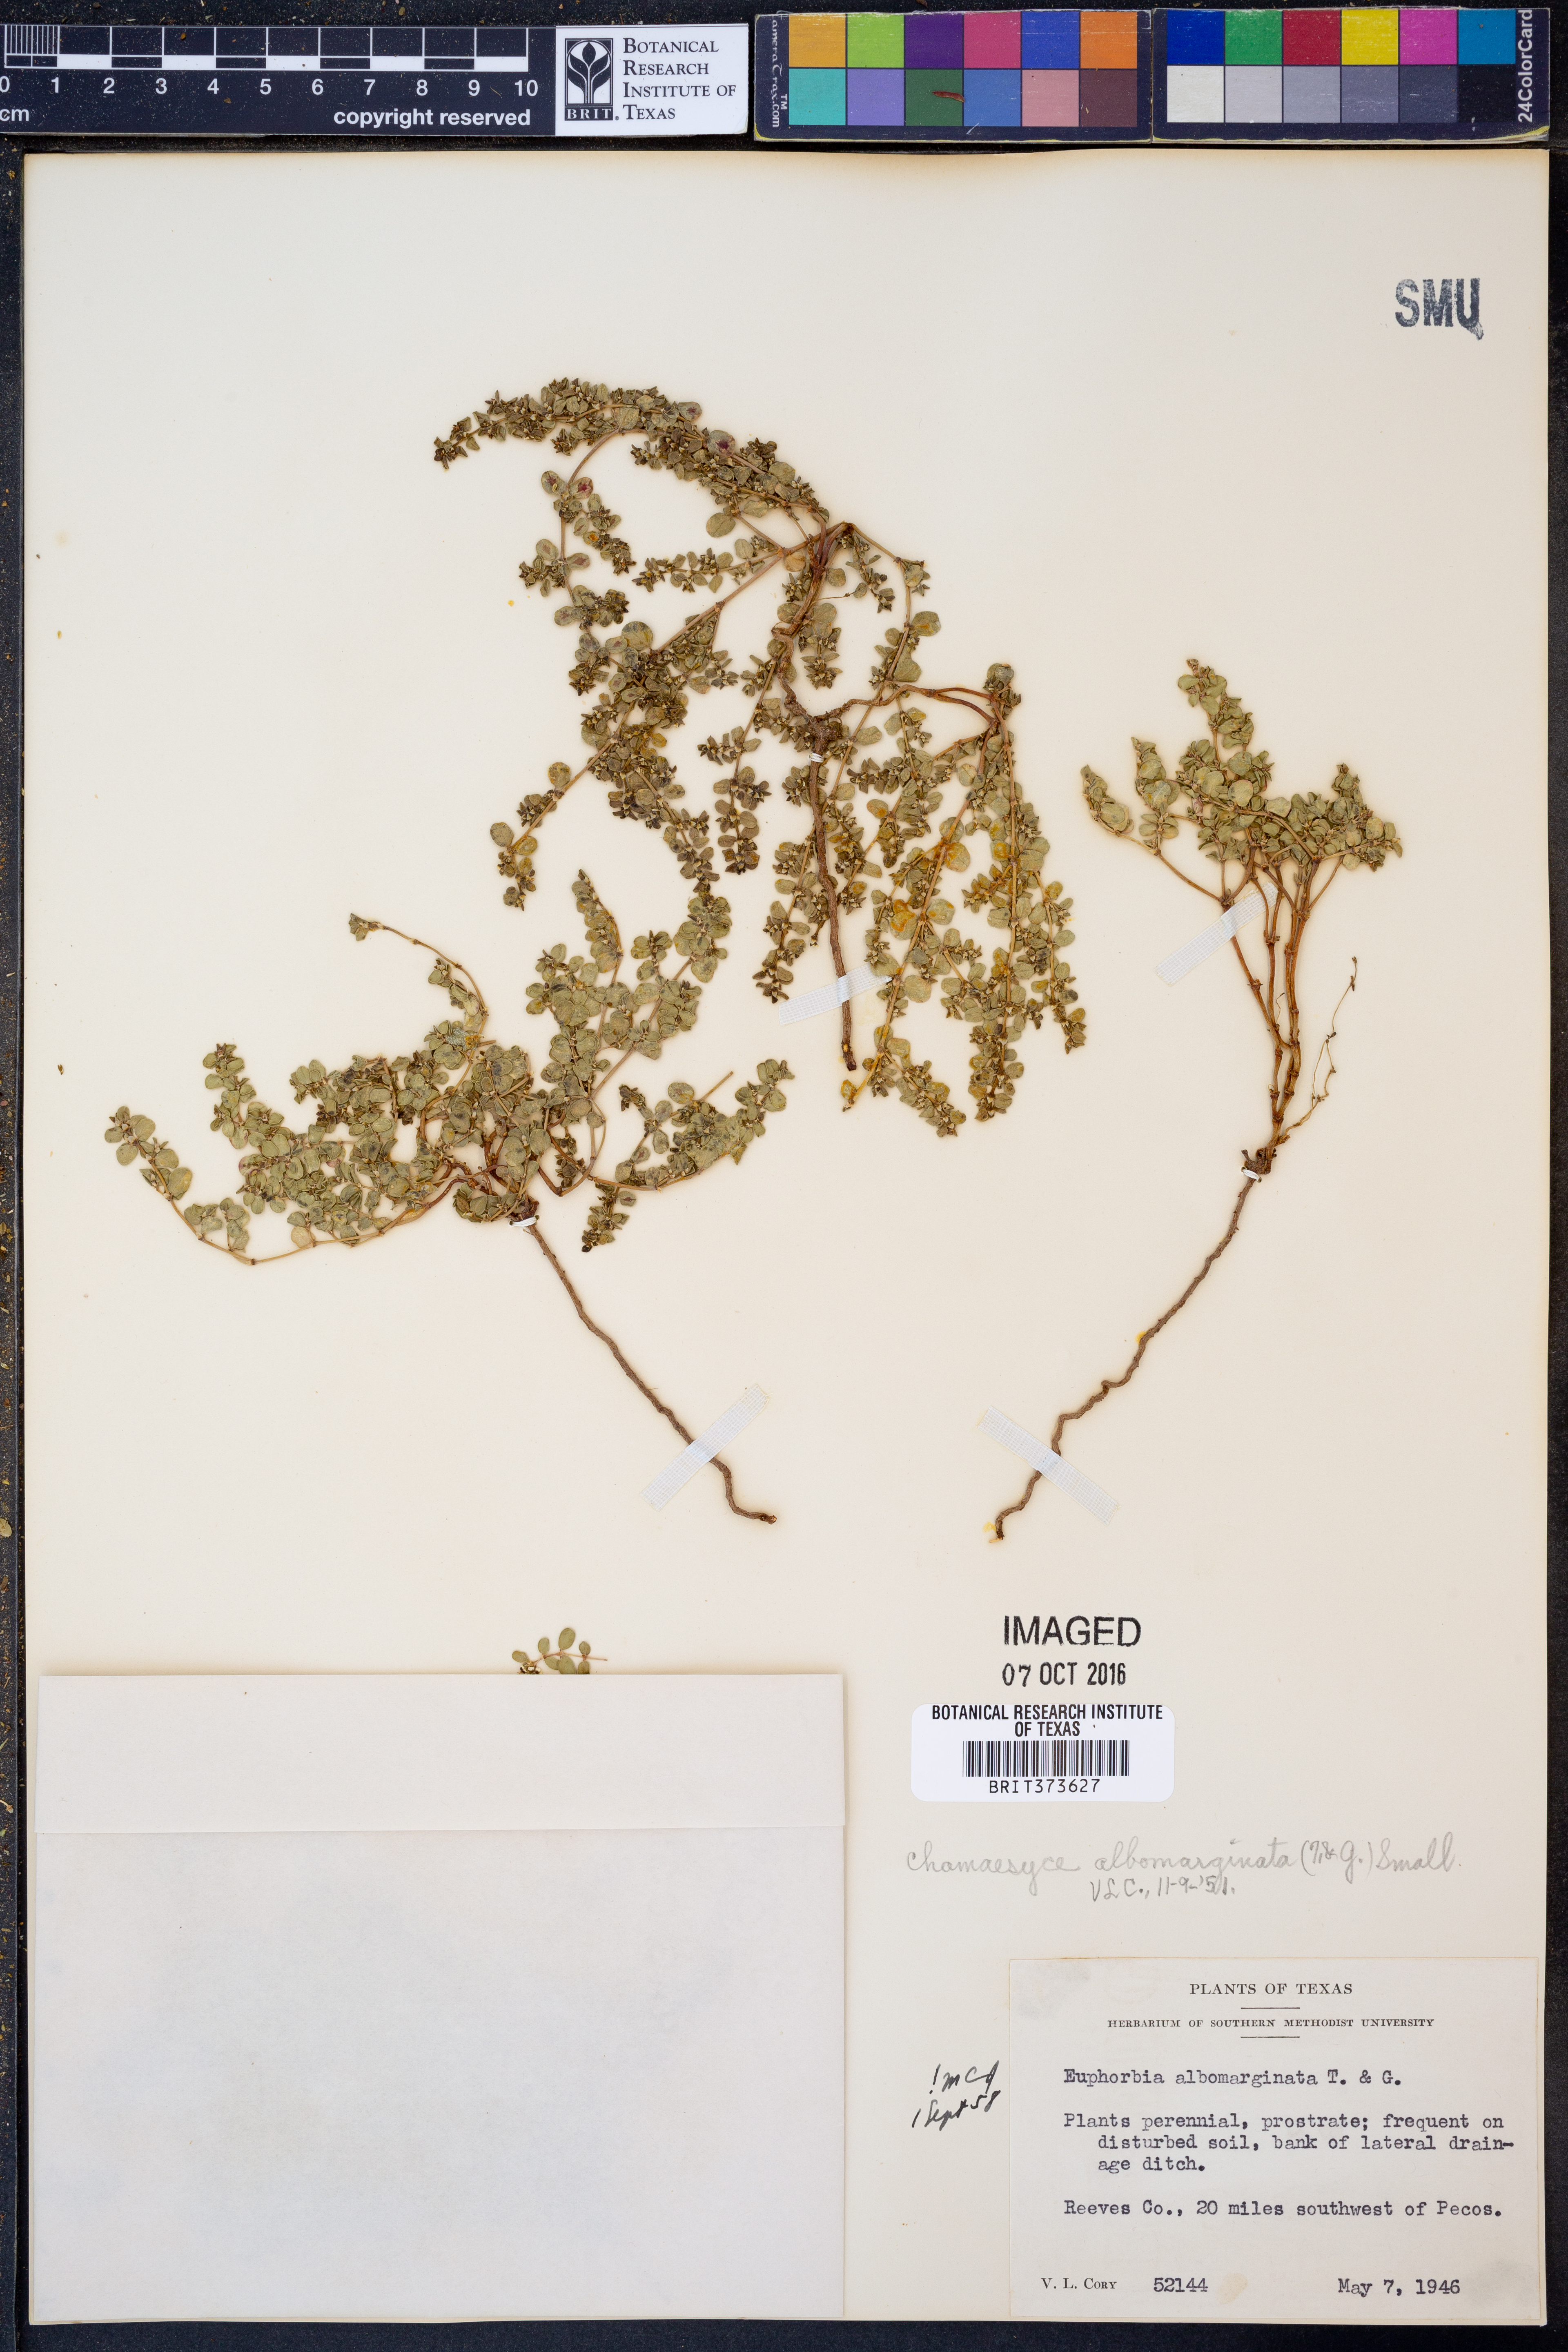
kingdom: Plantae
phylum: Tracheophyta
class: Magnoliopsida
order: Malpighiales
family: Euphorbiaceae
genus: Euphorbia
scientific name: Euphorbia albomarginata
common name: Whitemargin sandmat
